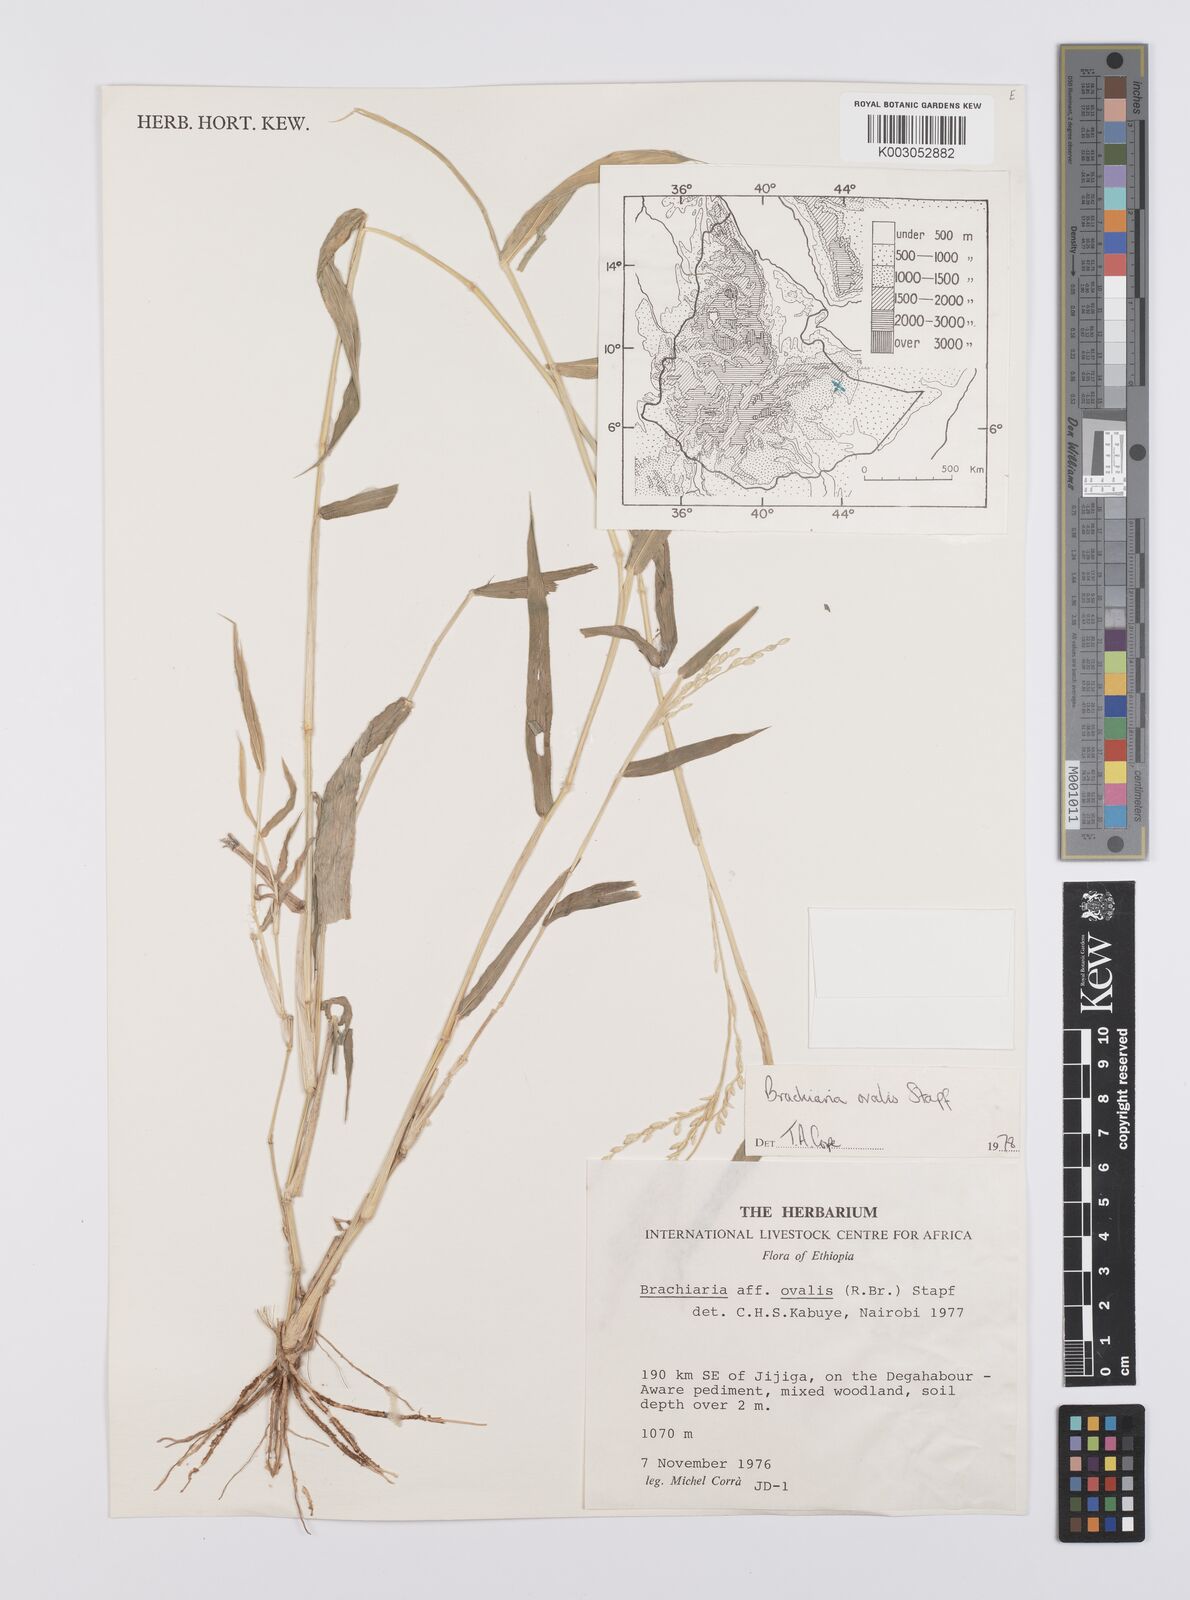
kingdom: Plantae
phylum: Tracheophyta
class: Liliopsida
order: Poales
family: Poaceae
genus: Urochloa
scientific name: Urochloa ovalis
